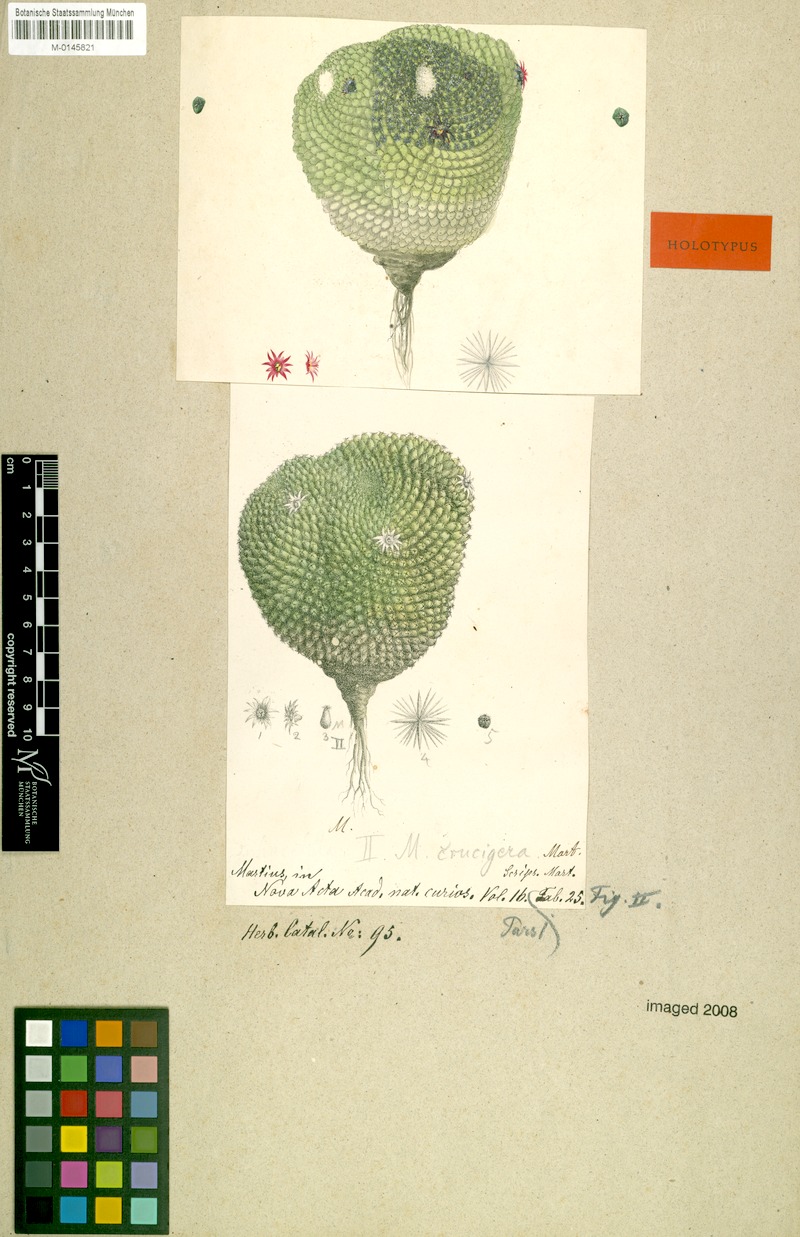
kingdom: Plantae
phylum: Tracheophyta
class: Magnoliopsida
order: Caryophyllales
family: Cactaceae
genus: Mammillaria
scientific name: Mammillaria crucigera
